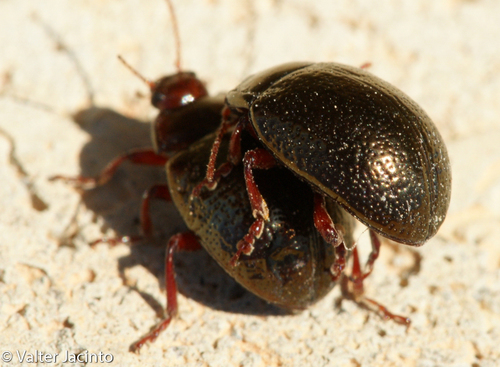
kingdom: Animalia
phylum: Arthropoda
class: Insecta
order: Coleoptera
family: Chrysomelidae
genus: Chrysolina
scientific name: Chrysolina bankii
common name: Leaf beetle
